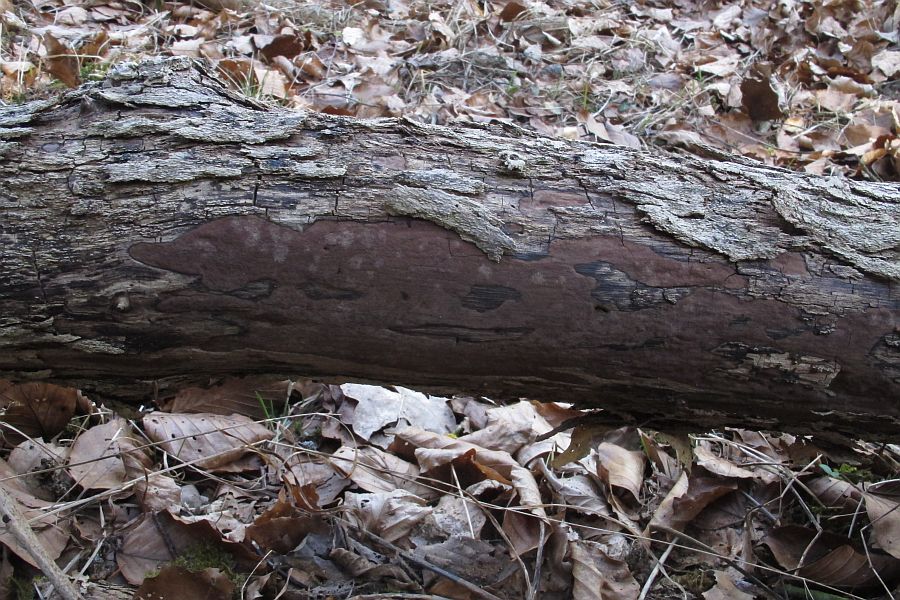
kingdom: Fungi
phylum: Ascomycota
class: Sordariomycetes
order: Xylariales
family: Hypoxylaceae
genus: Hypoxylon
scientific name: Hypoxylon petriniae
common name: nedsænket kulbær
